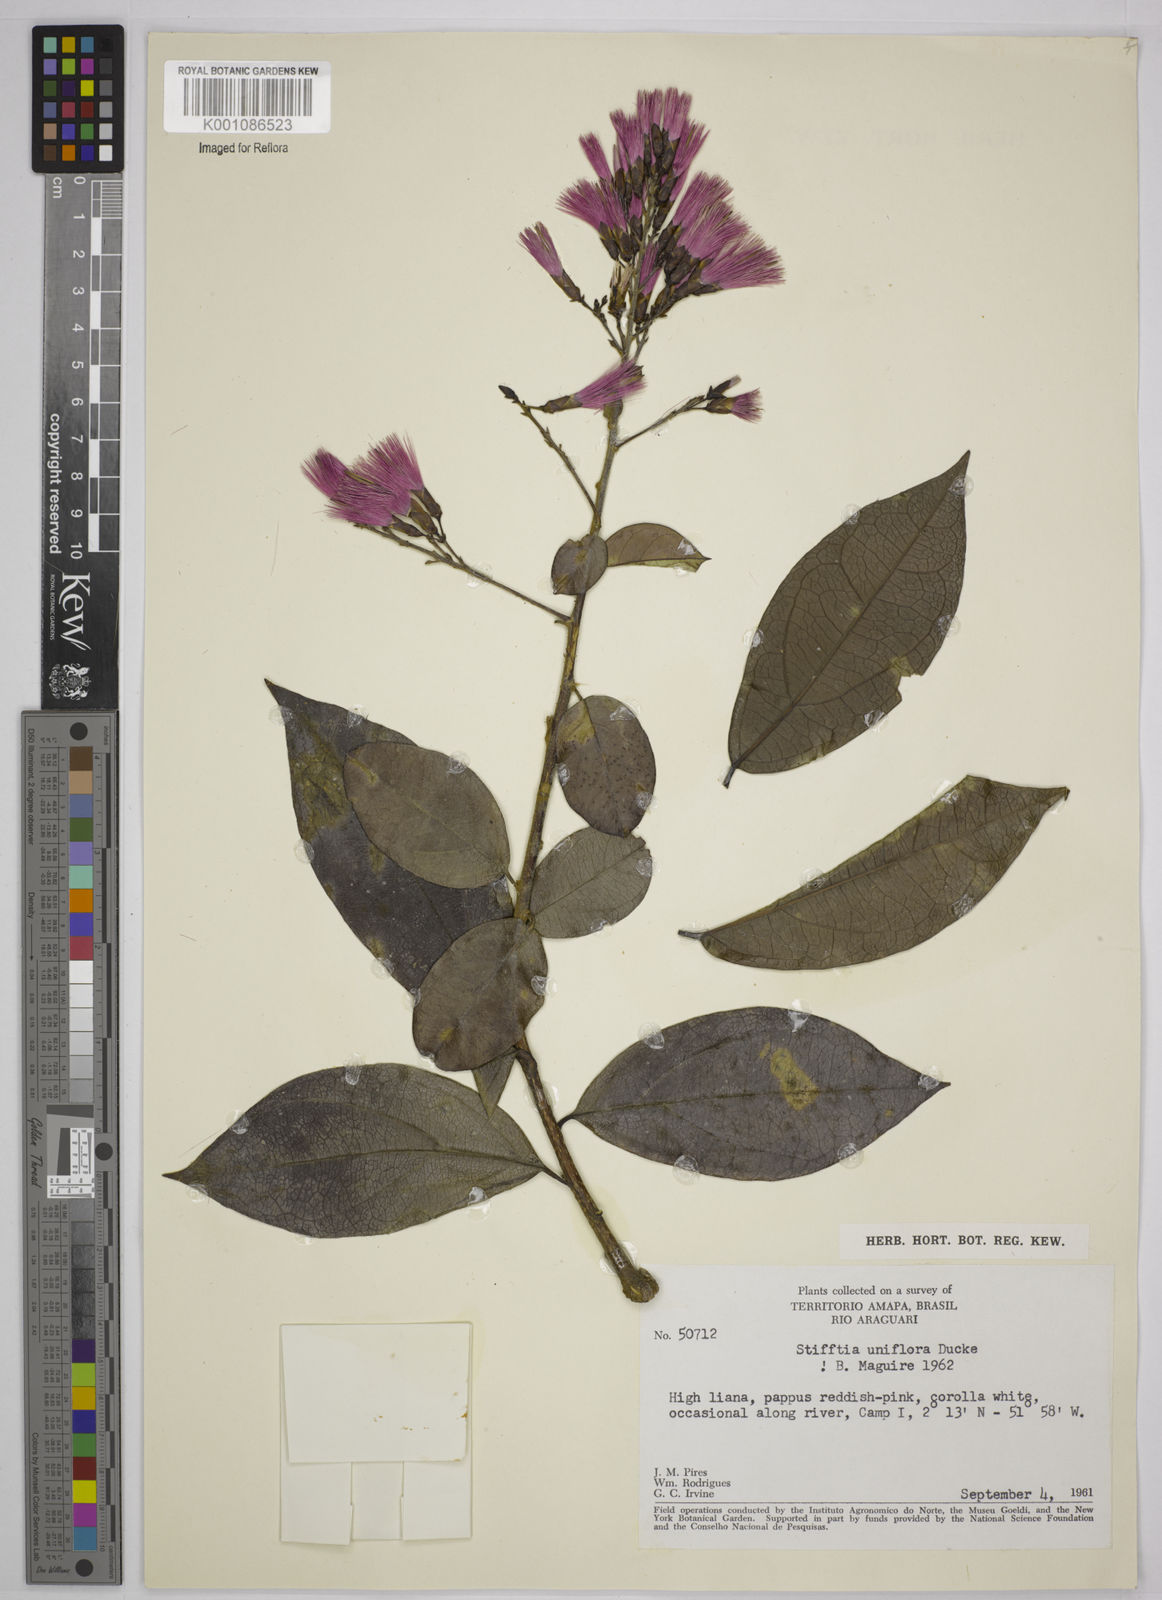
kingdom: Plantae
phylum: Tracheophyta
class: Magnoliopsida
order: Asterales
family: Asteraceae
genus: Stifftia
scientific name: Stifftia uniflora
